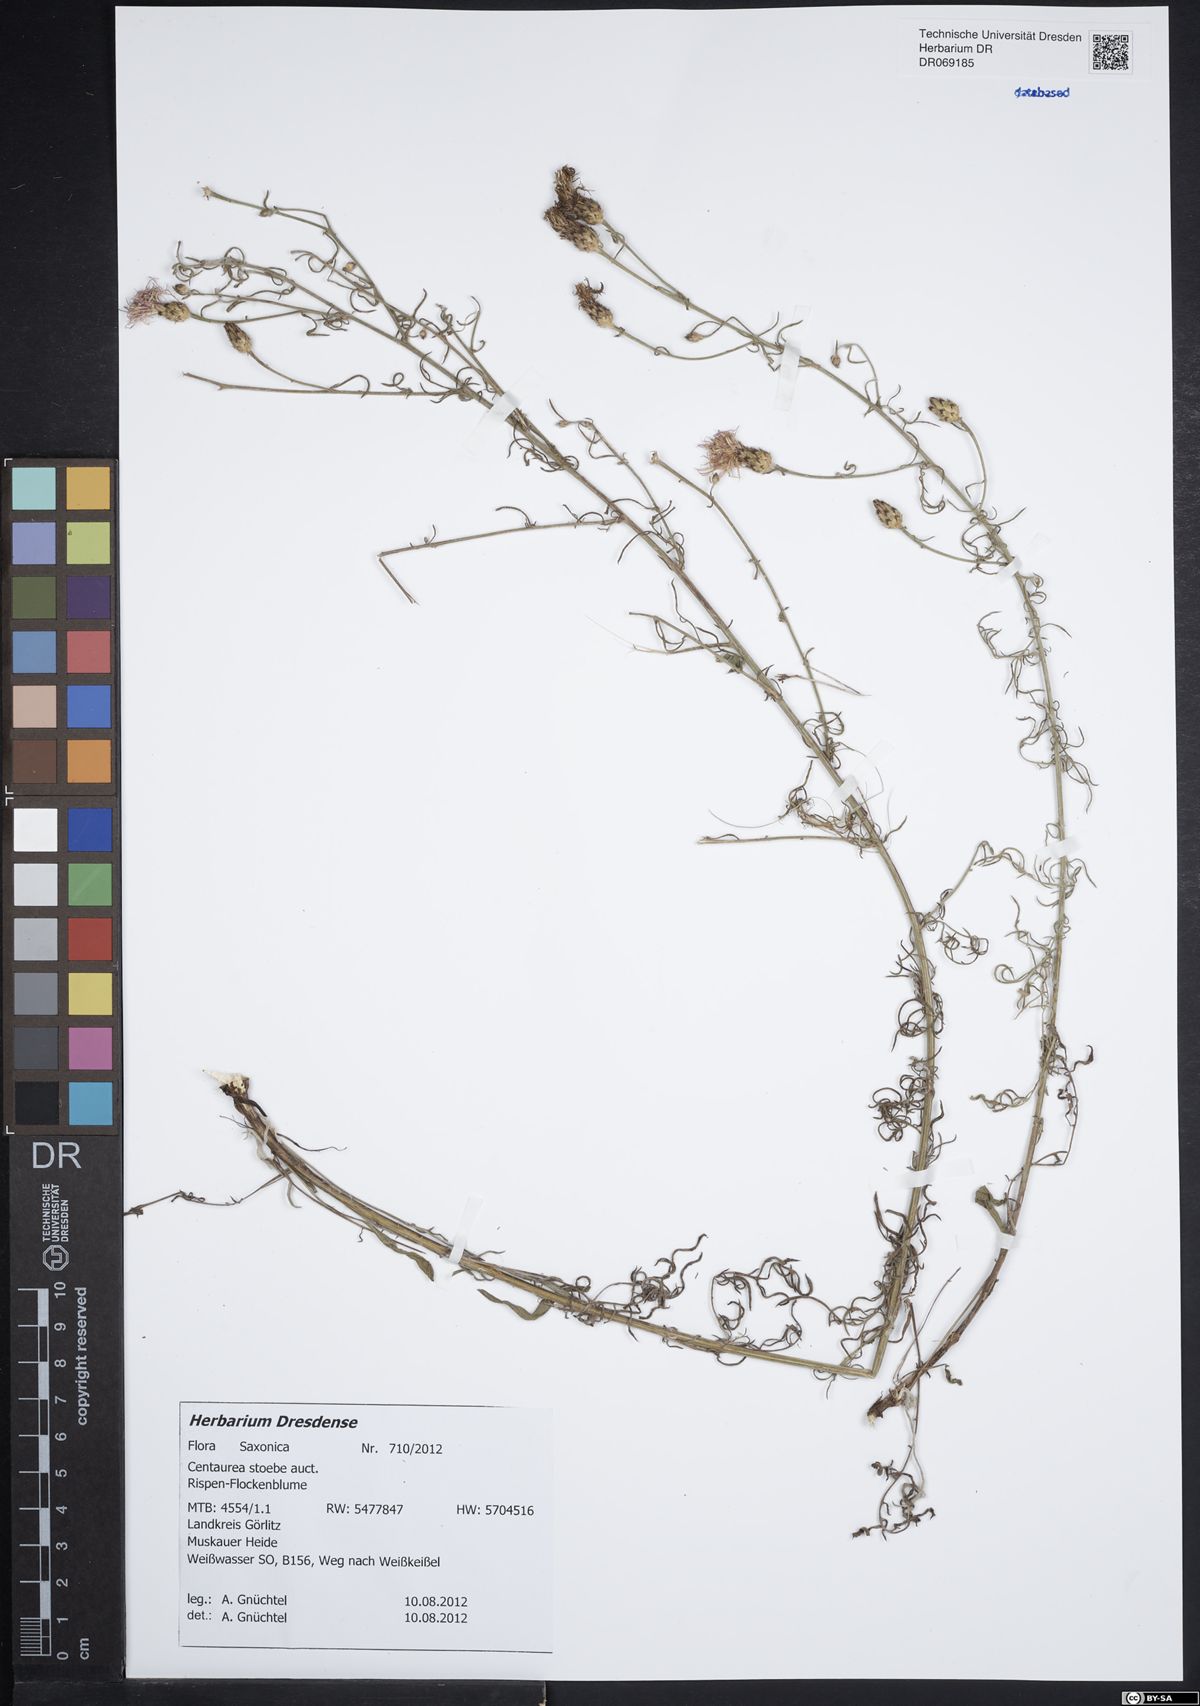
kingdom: Plantae
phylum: Tracheophyta
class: Magnoliopsida
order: Asterales
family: Asteraceae
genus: Centaurea
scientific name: Centaurea stoebe
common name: Spotted knapweed
